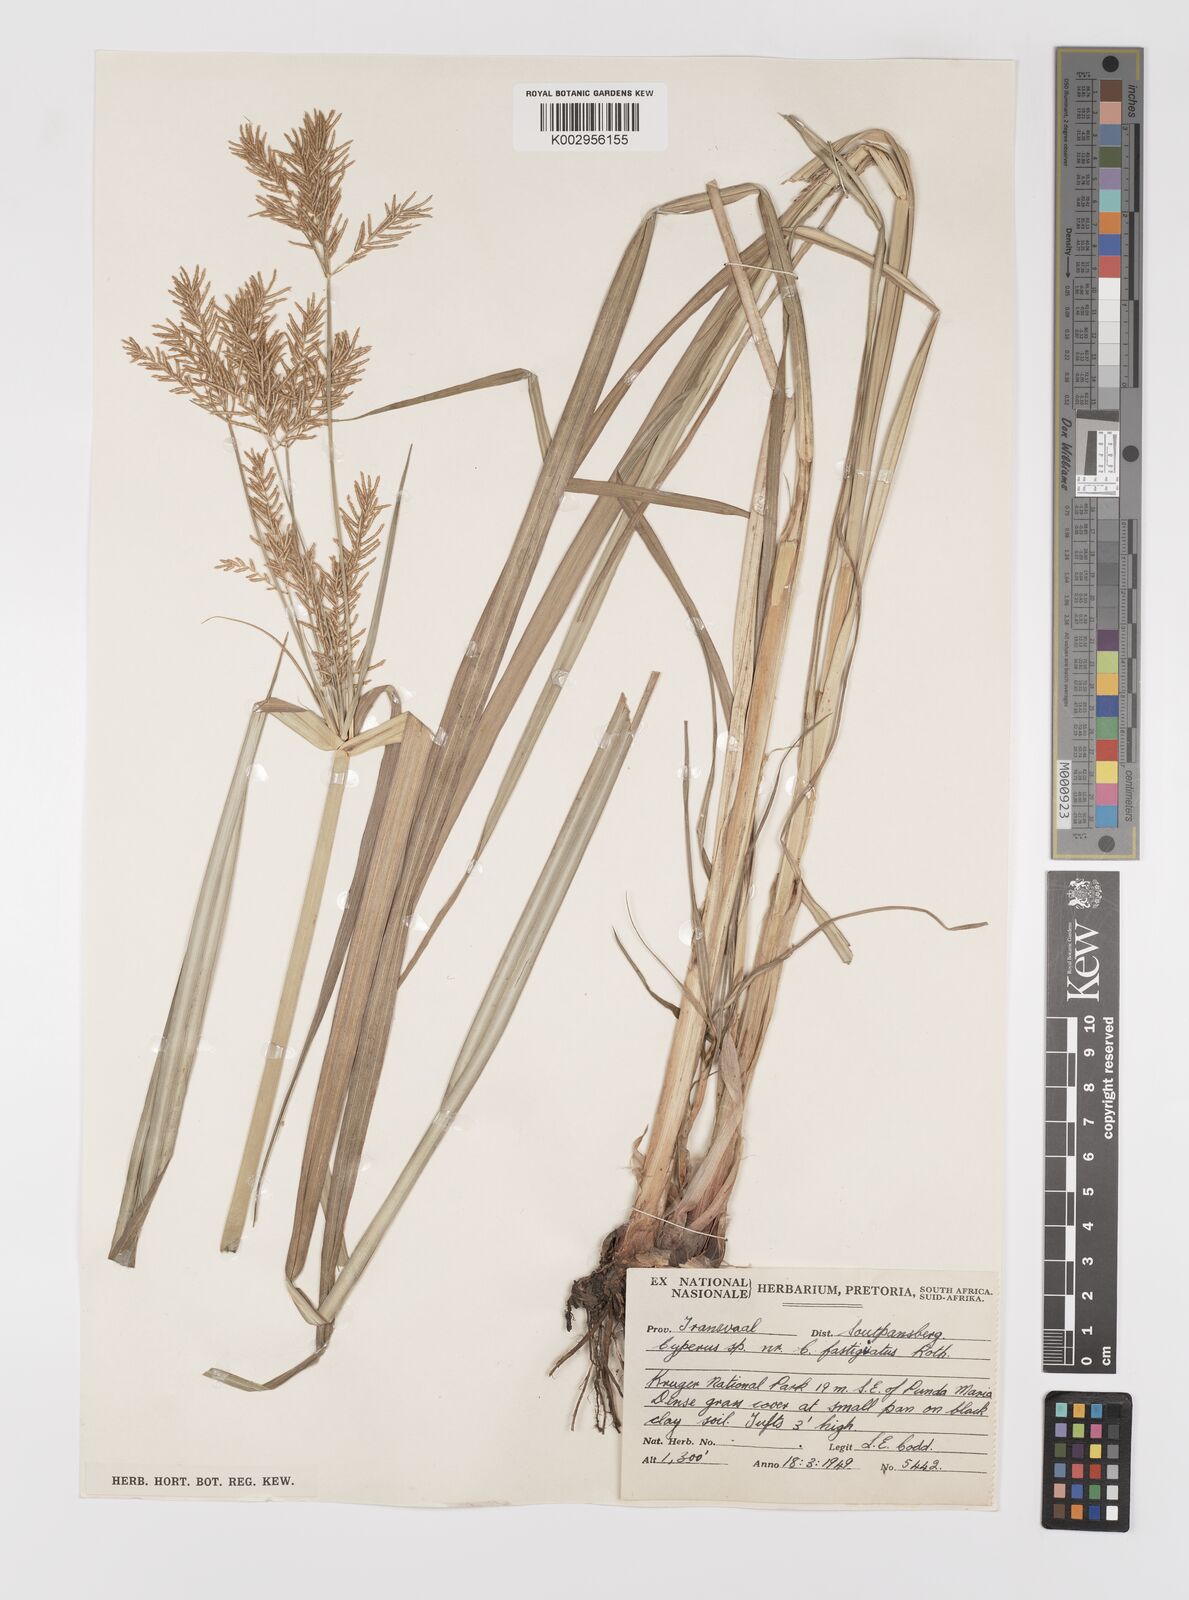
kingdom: Plantae
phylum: Tracheophyta
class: Liliopsida
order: Poales
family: Cyperaceae
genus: Cyperus
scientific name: Cyperus digitatus
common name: Finger flatsedge
